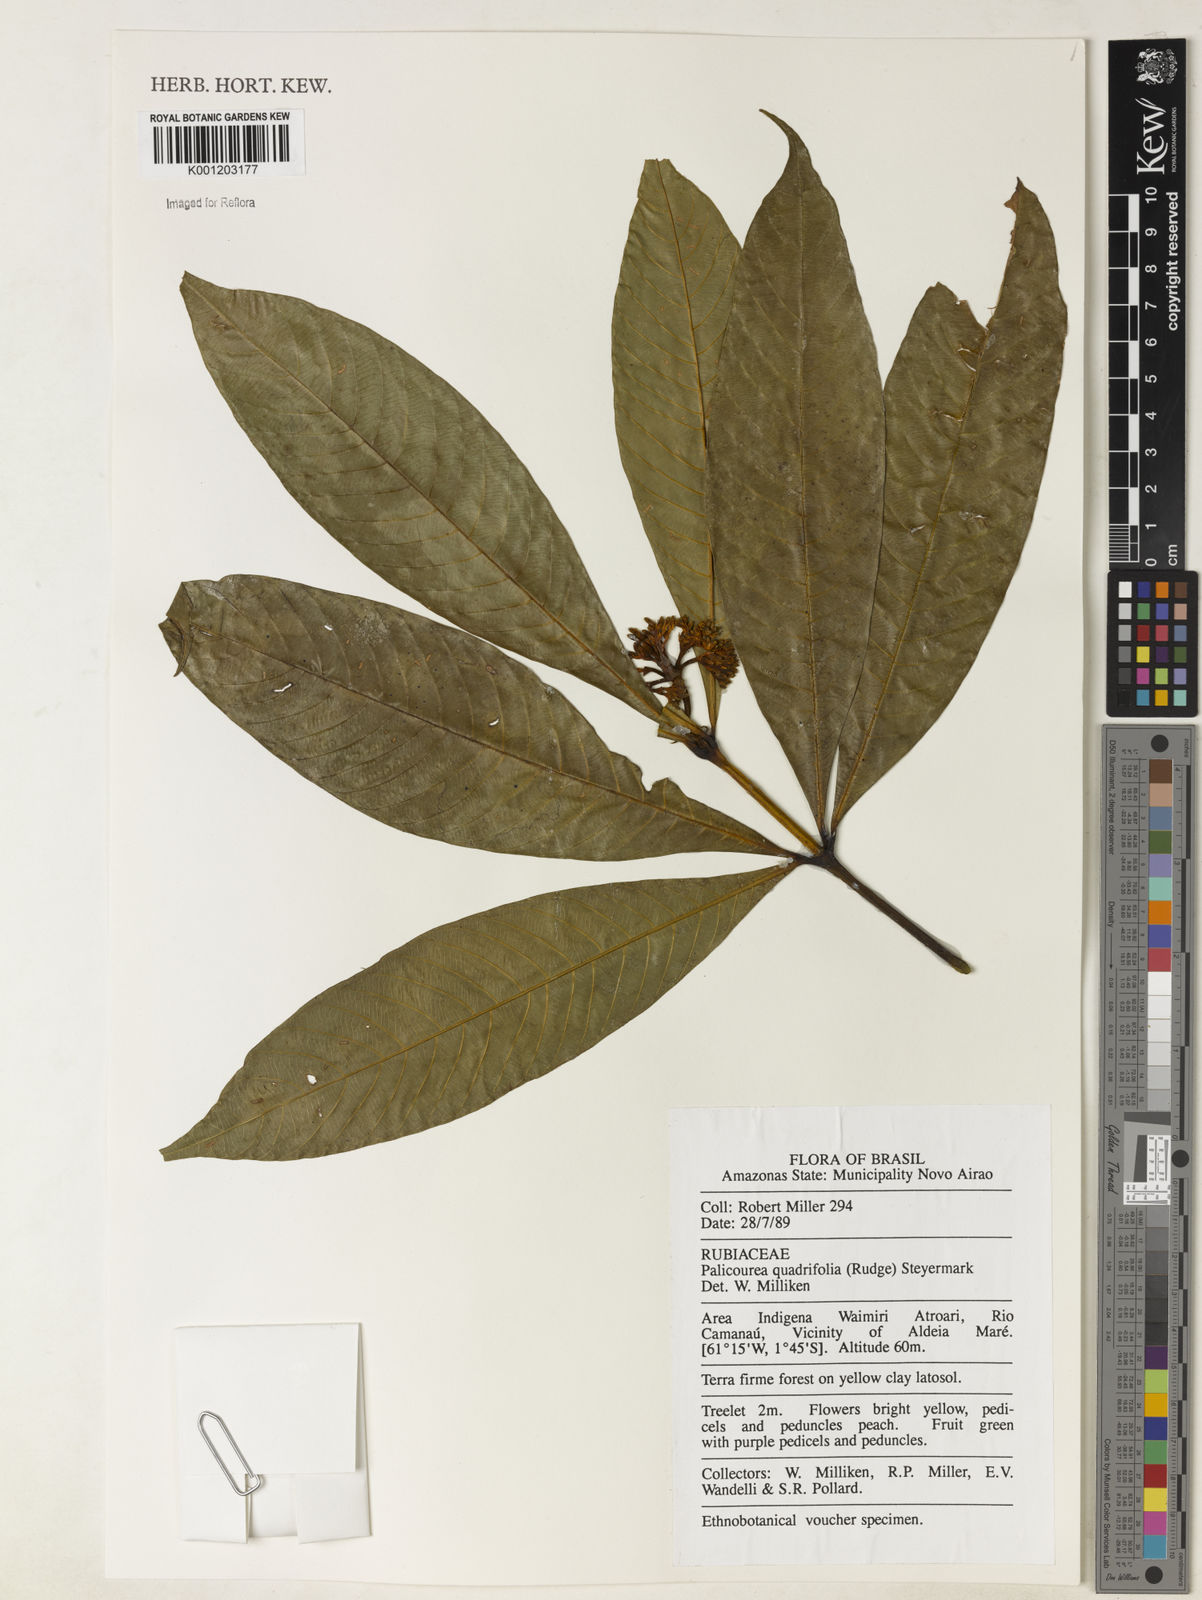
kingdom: Plantae
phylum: Tracheophyta
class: Magnoliopsida
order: Gentianales
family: Rubiaceae
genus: Palicourea
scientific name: Palicourea quadrifolia
